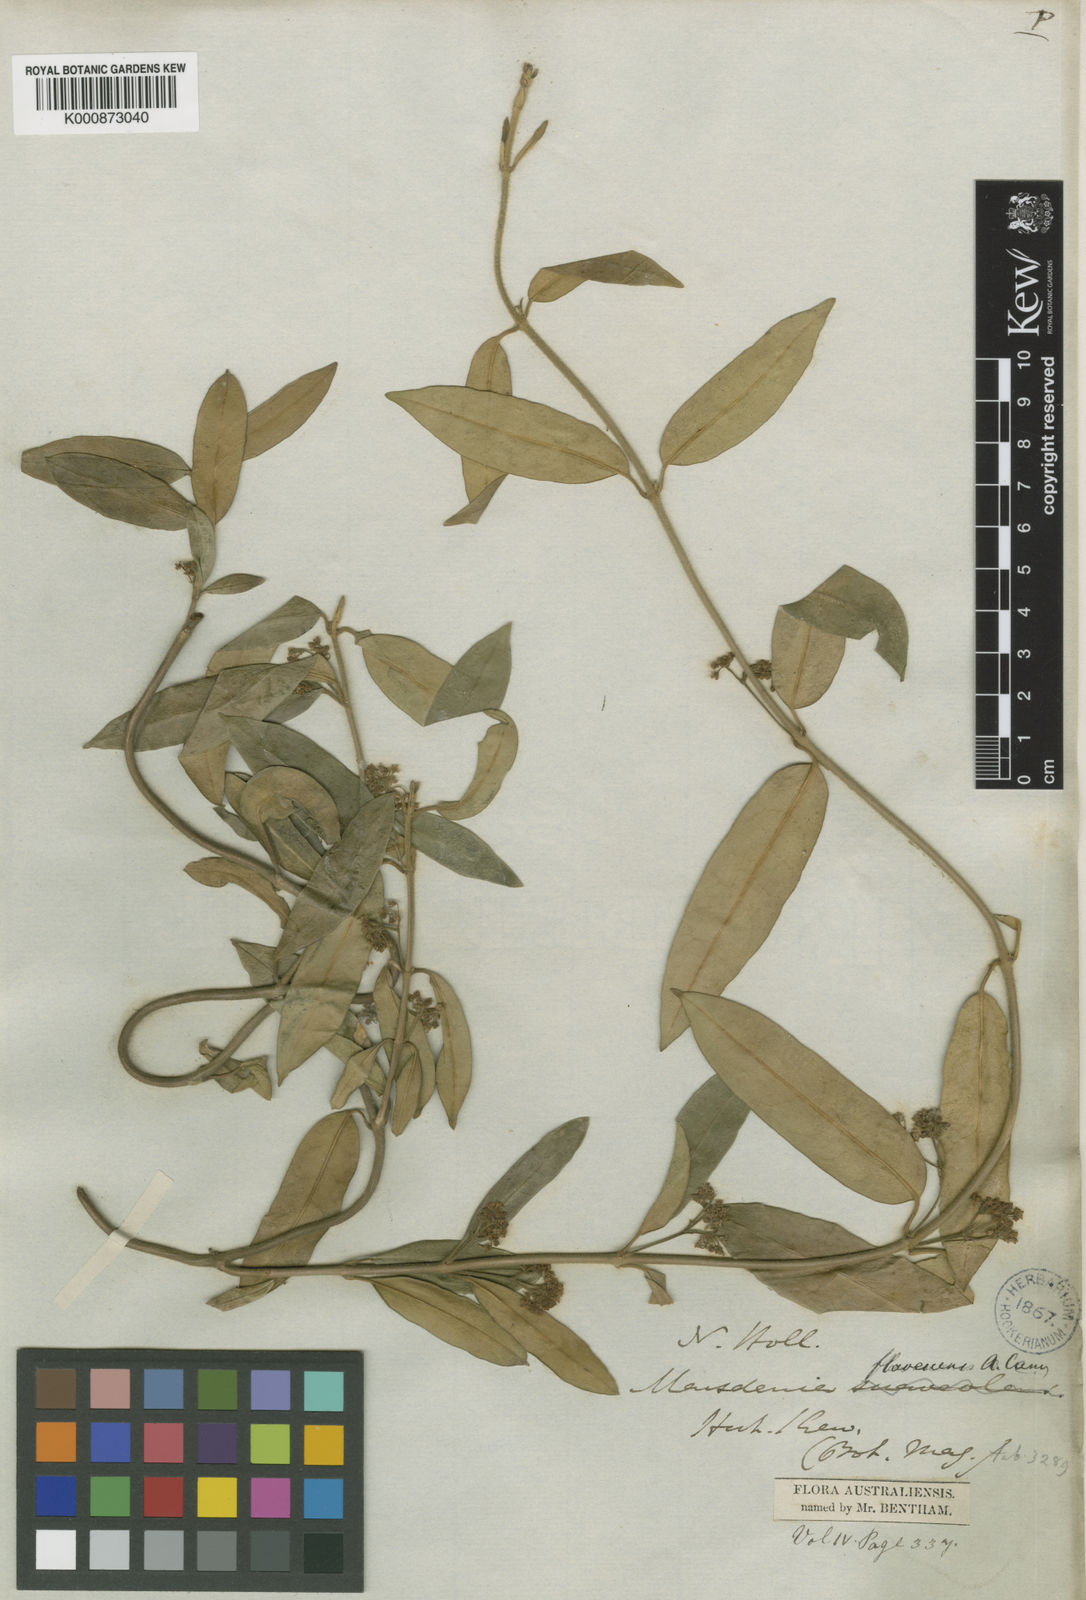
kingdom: Plantae
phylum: Tracheophyta
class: Magnoliopsida
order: Gentianales
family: Apocynaceae
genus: Marsdenia
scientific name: Marsdenia
